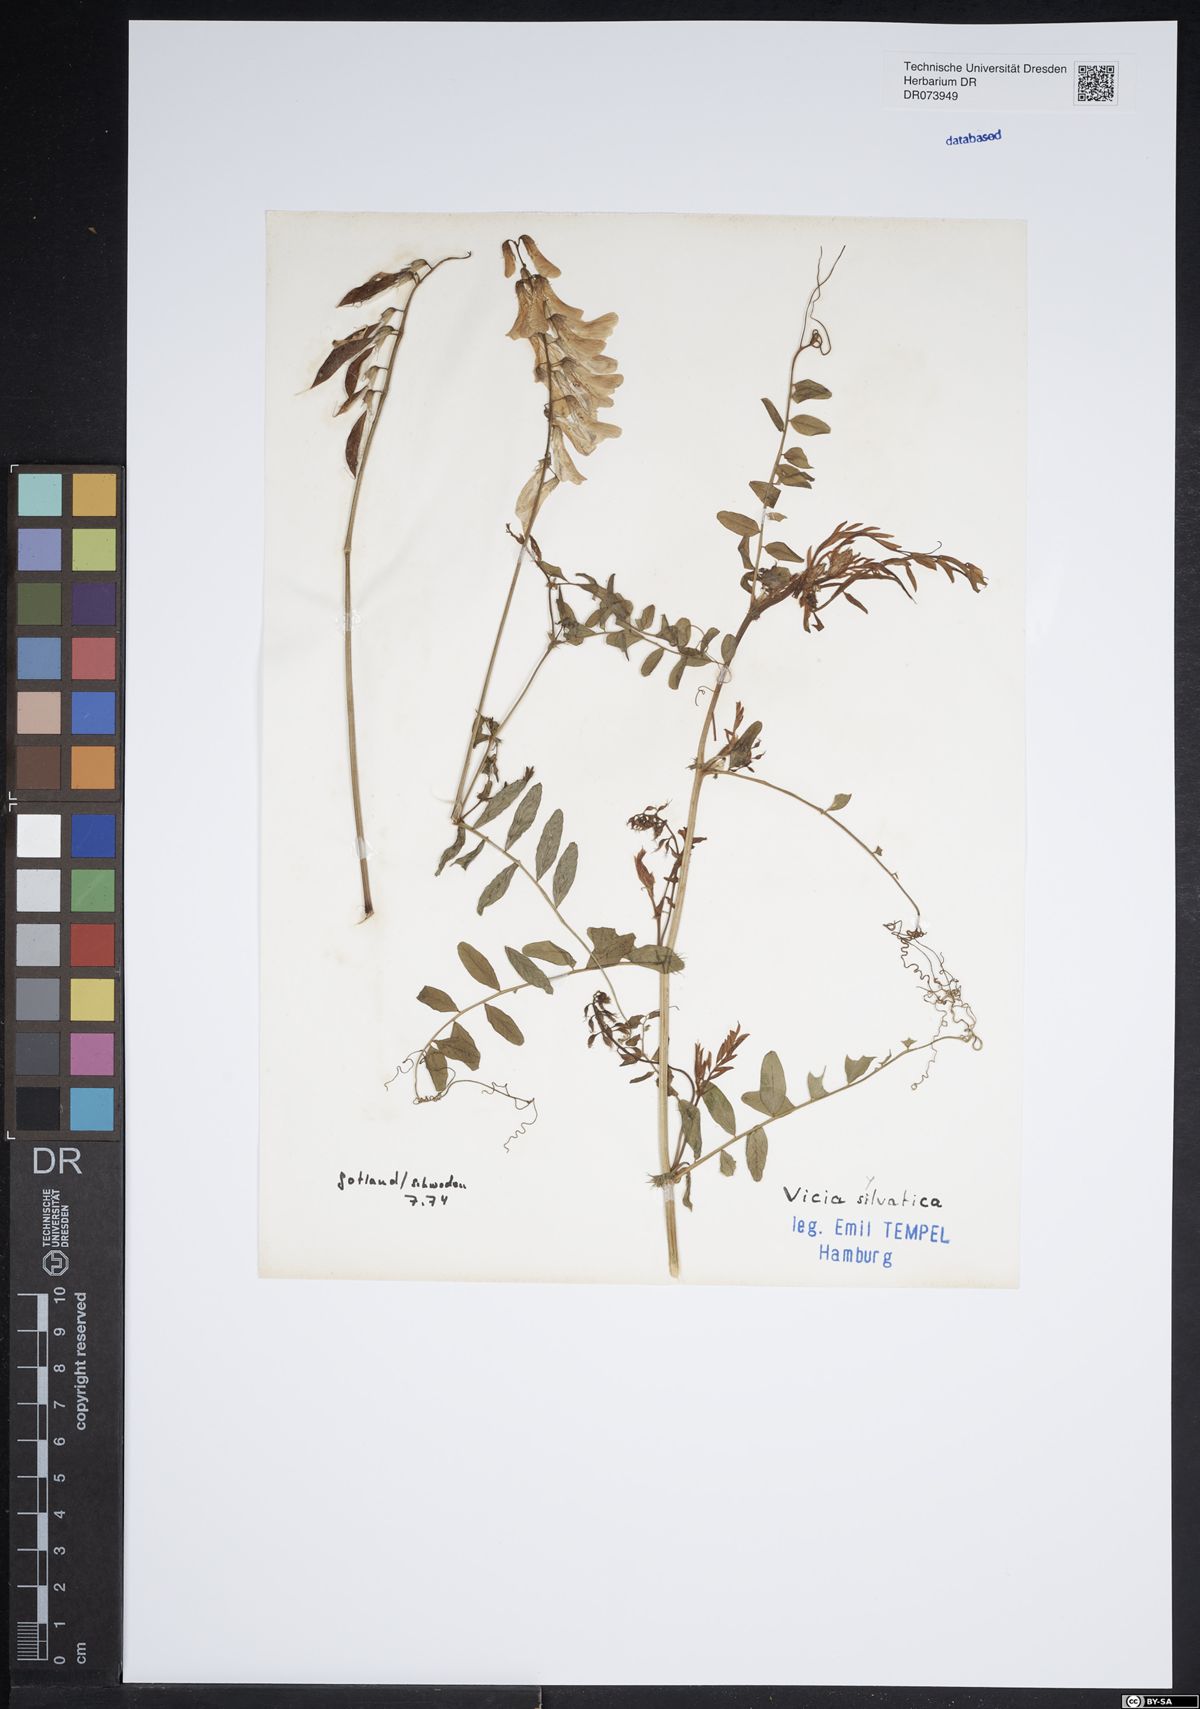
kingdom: Plantae
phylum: Tracheophyta
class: Magnoliopsida
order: Fabales
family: Fabaceae
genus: Vicia
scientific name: Vicia sylvatica
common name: Wood vetch
